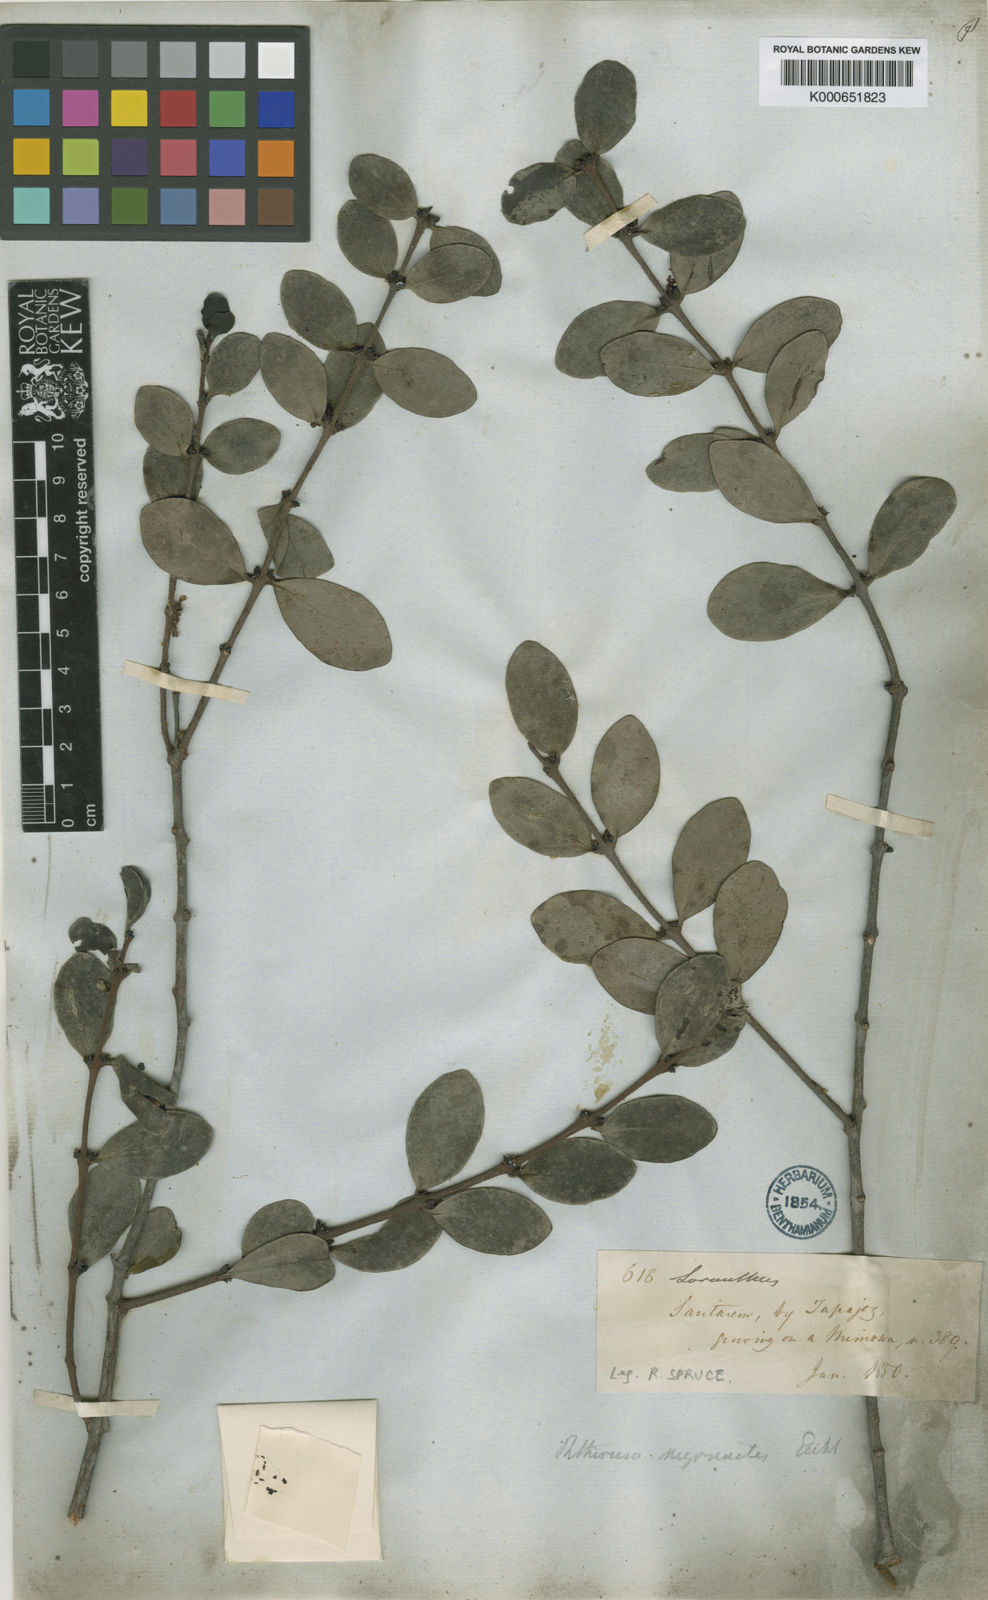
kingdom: Plantae
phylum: Tracheophyta
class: Magnoliopsida
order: Santalales
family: Loranthaceae
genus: Oryctina
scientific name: Oryctina myrsinites
